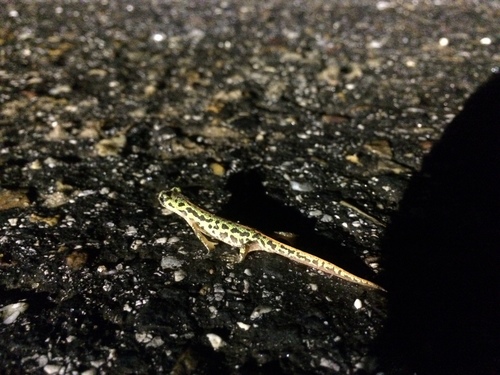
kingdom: Animalia
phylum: Chordata
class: Amphibia
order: Caudata
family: Salamandridae
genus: Triturus
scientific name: Triturus pygmaeus
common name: Southern marbled newt
